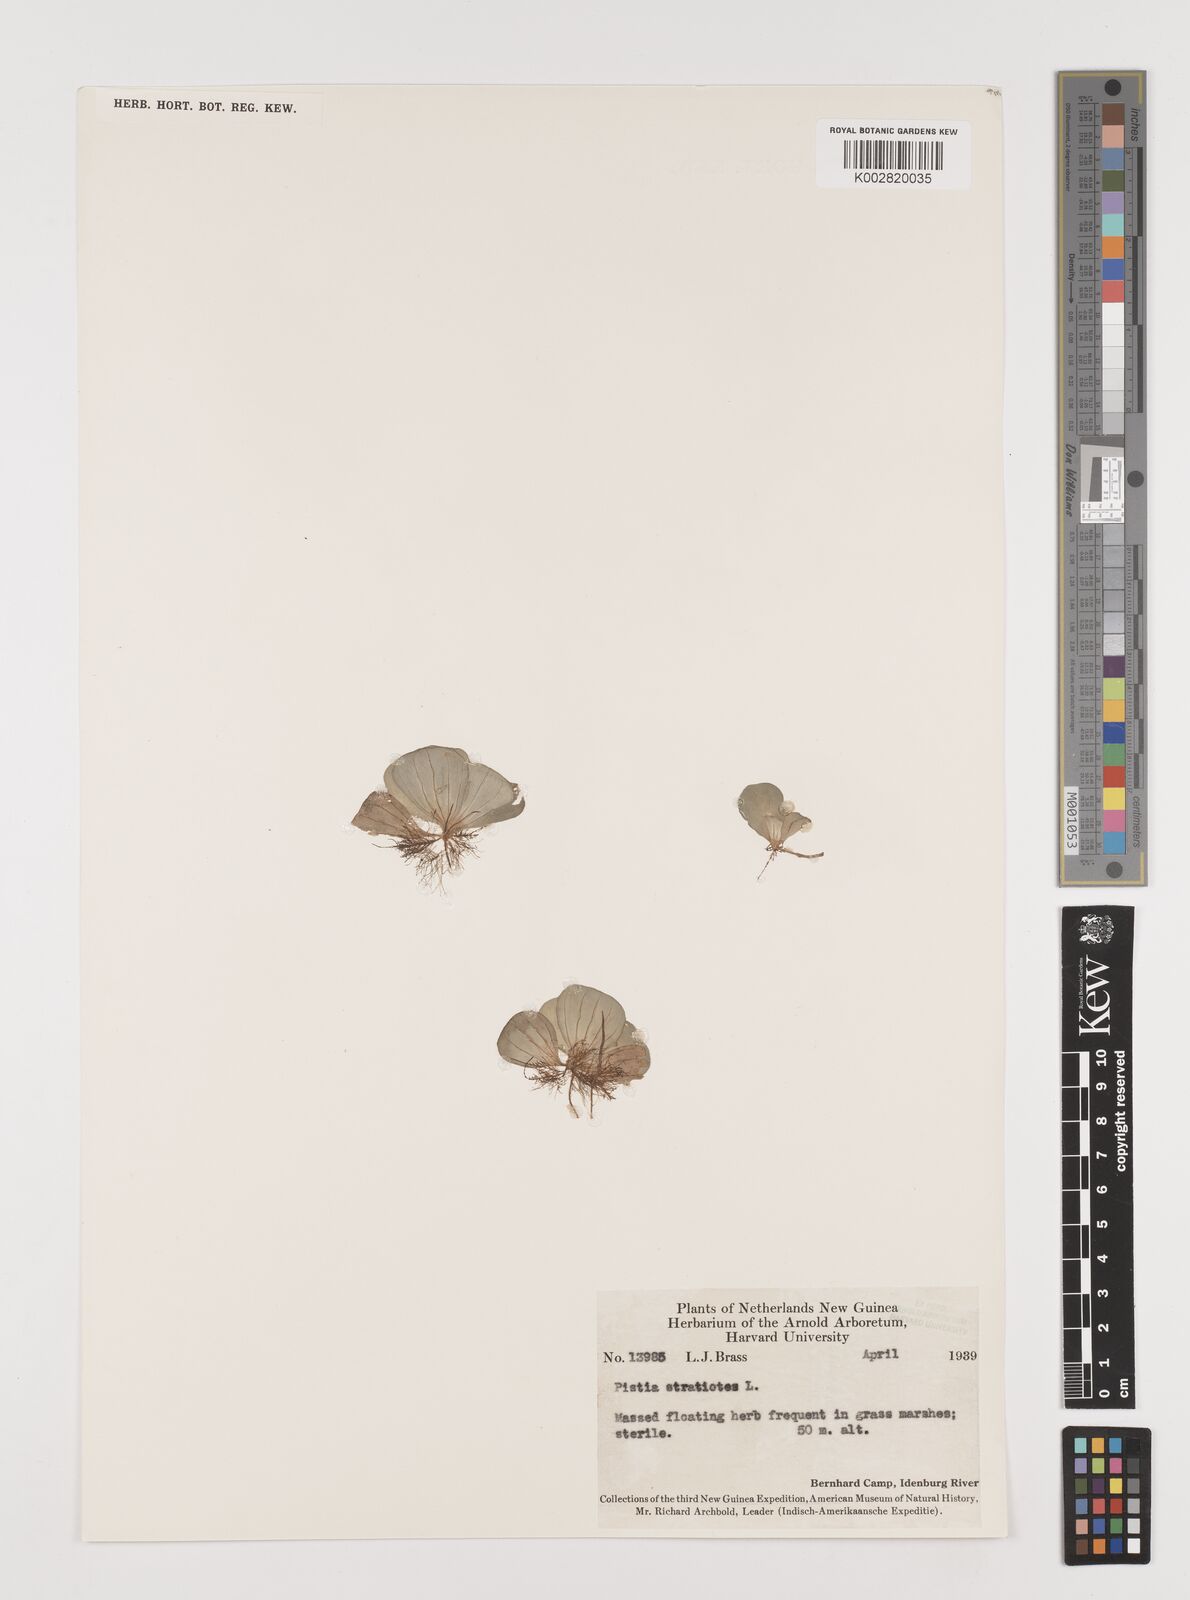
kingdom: Plantae
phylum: Tracheophyta
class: Liliopsida
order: Alismatales
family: Araceae
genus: Pistia
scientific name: Pistia stratiotes
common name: Water lettuce
